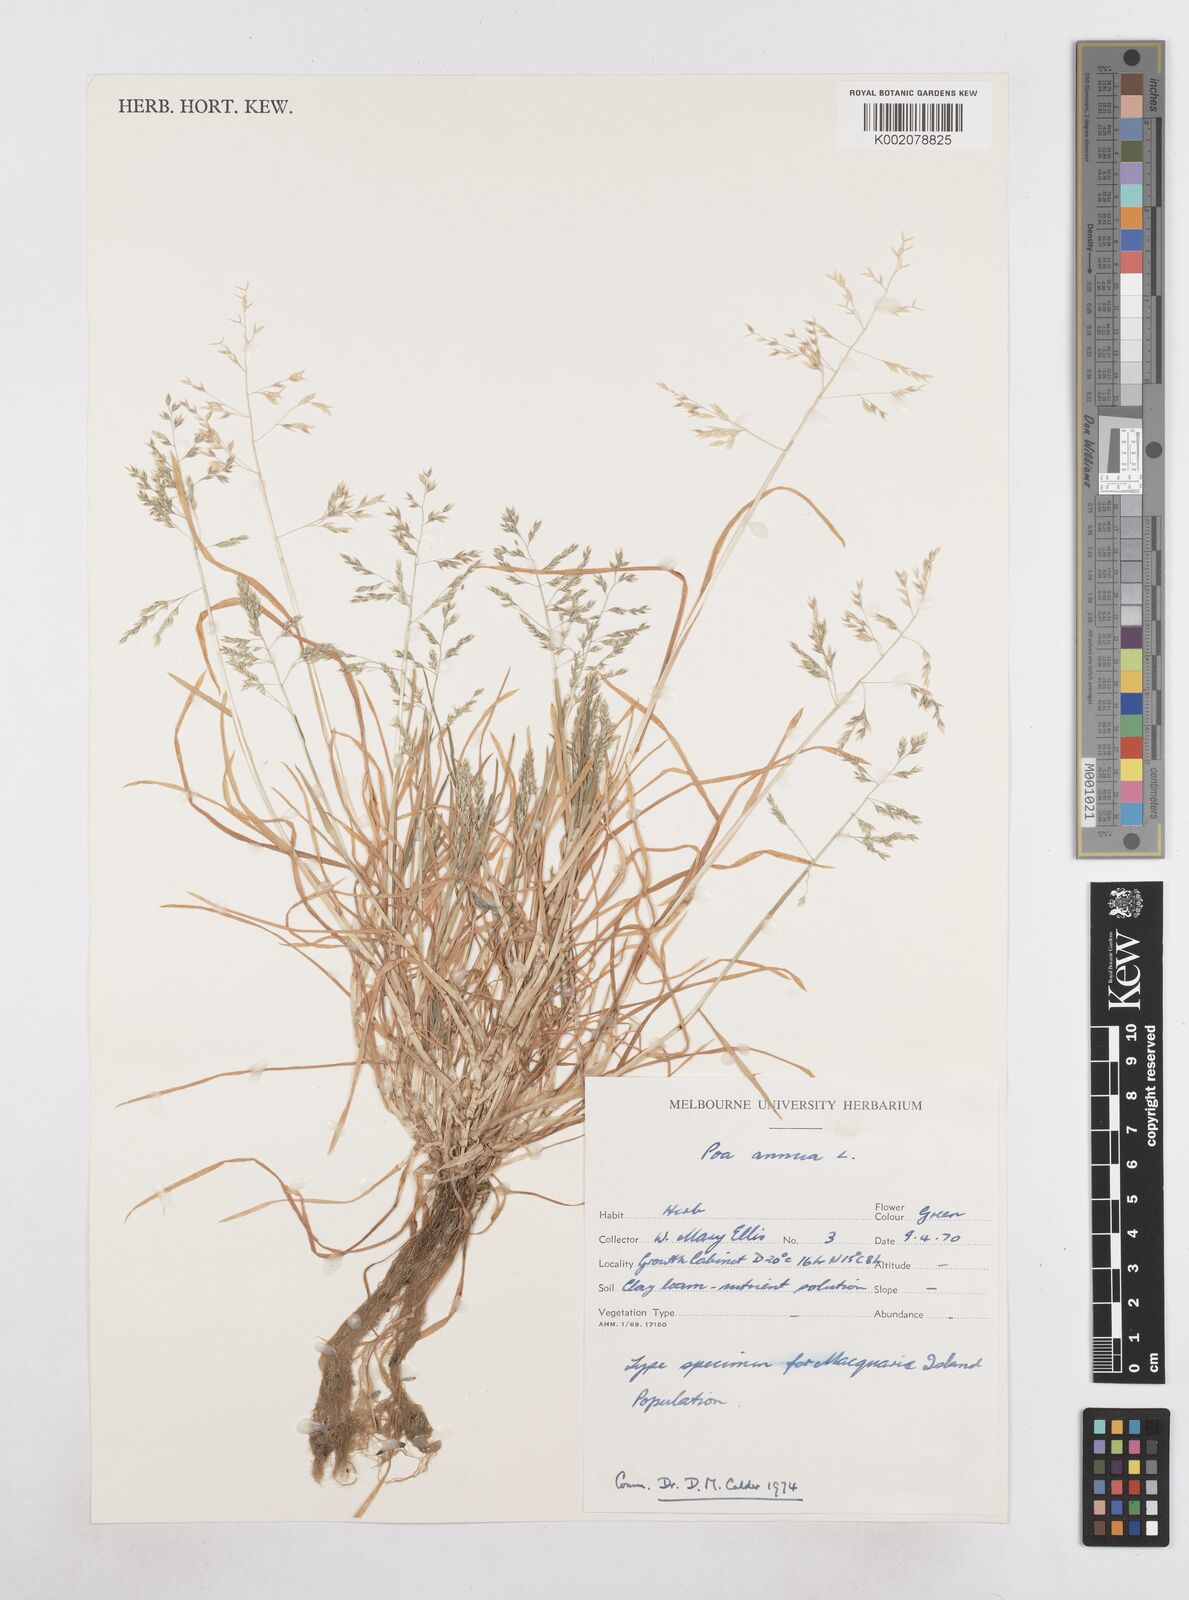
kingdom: Plantae
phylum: Tracheophyta
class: Liliopsida
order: Poales
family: Poaceae
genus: Poa
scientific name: Poa annua
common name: Annual bluegrass
